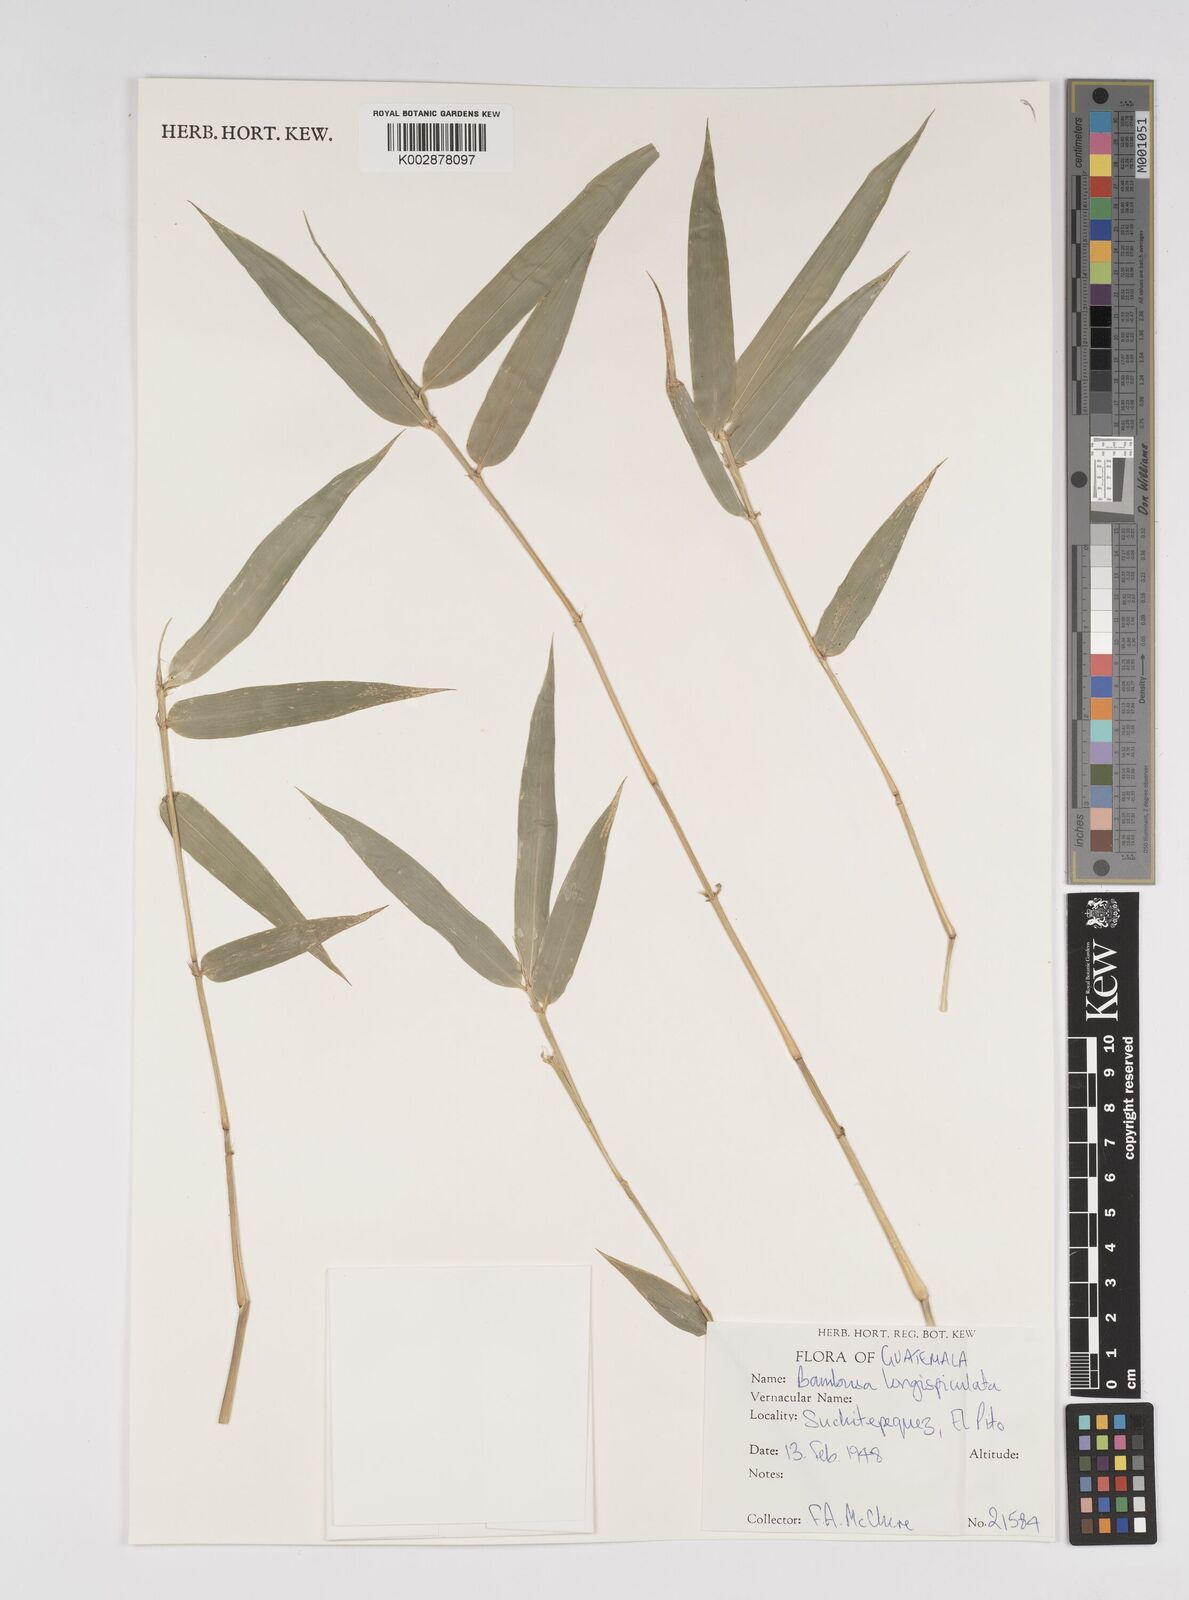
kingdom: Plantae
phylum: Tracheophyta
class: Liliopsida
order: Poales
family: Poaceae
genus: Bambusa
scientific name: Bambusa longispiculata
